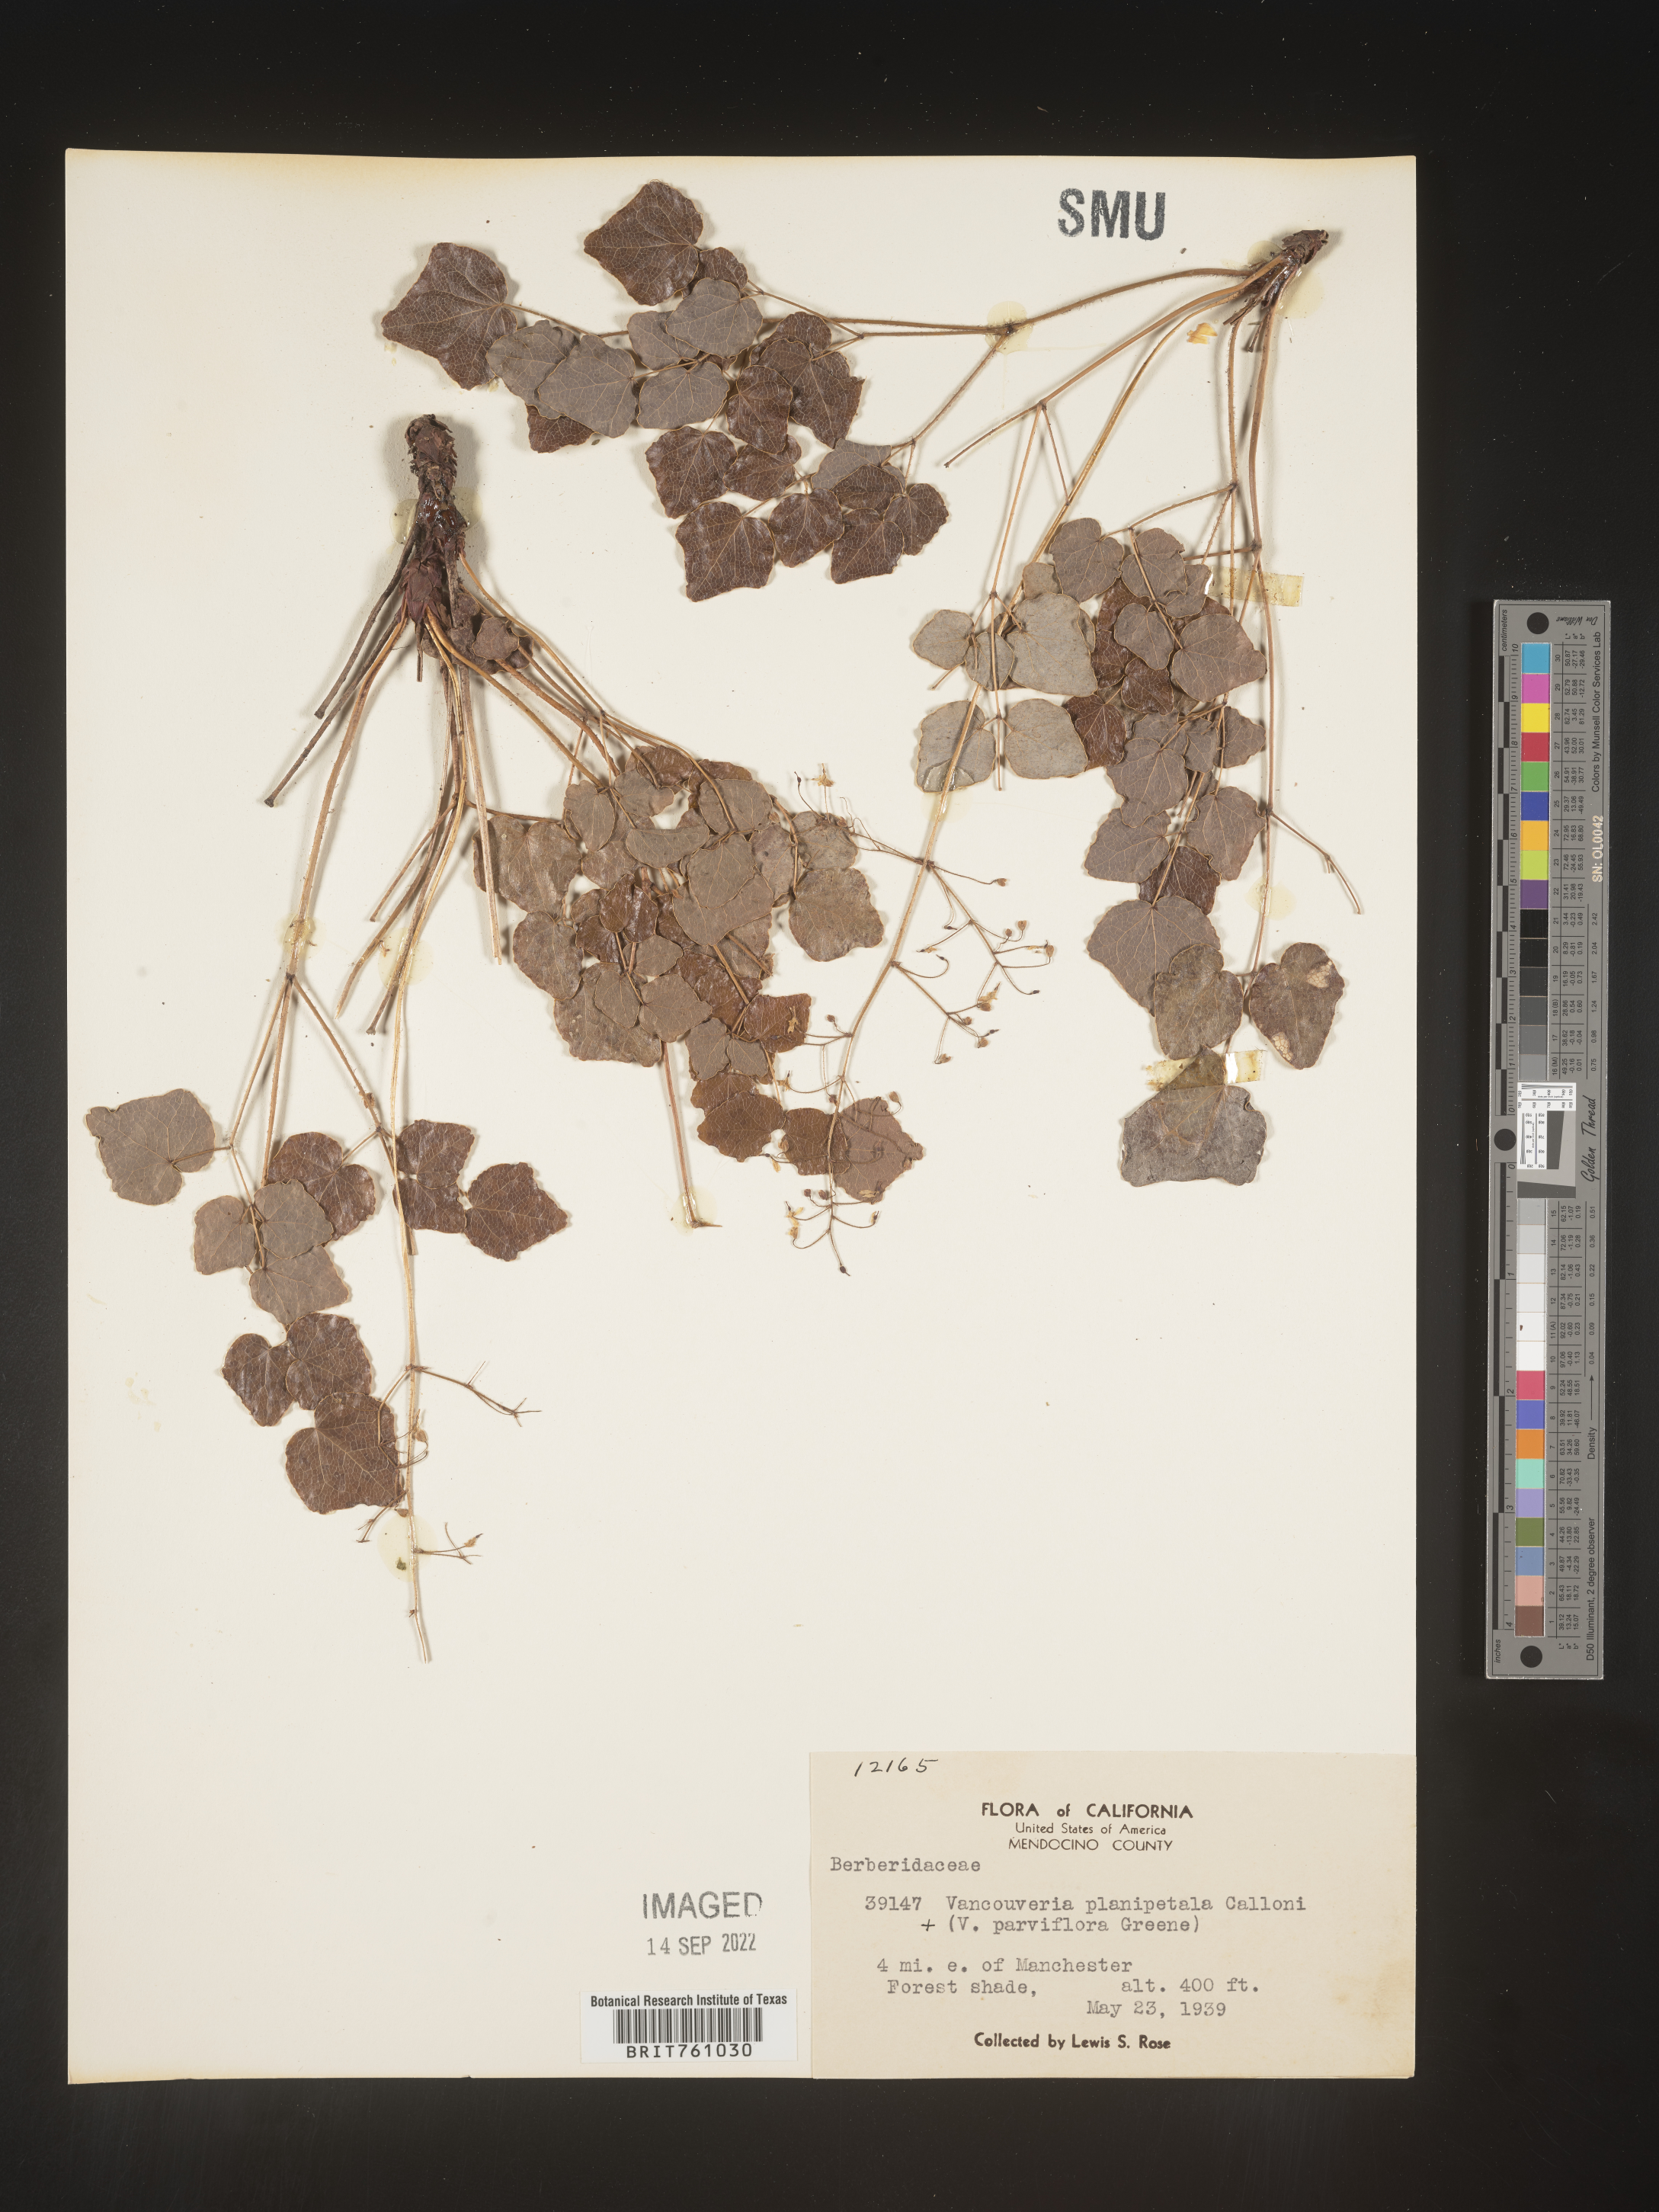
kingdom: Plantae
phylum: Tracheophyta
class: Magnoliopsida
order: Ranunculales
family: Berberidaceae
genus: Vancouveria
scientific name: Vancouveria
